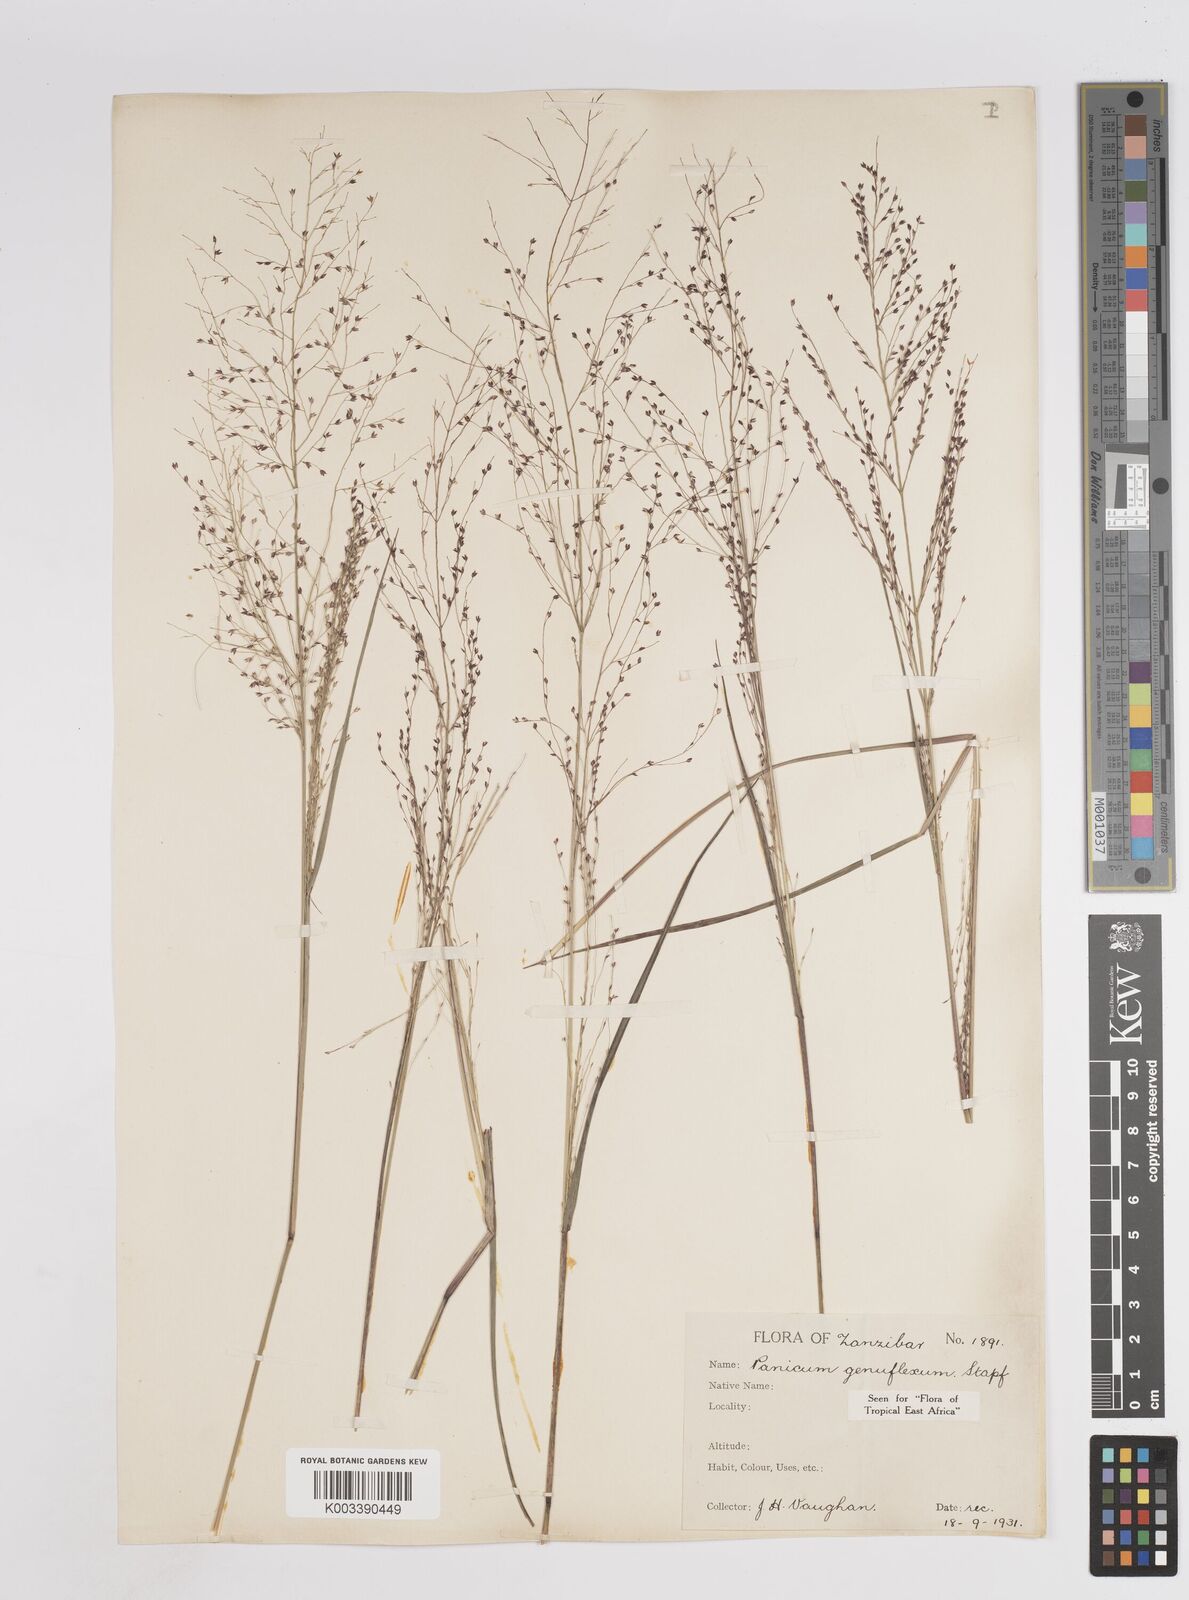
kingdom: Plantae
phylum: Tracheophyta
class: Liliopsida
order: Poales
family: Poaceae
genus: Panicum
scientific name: Panicum genuflexum
